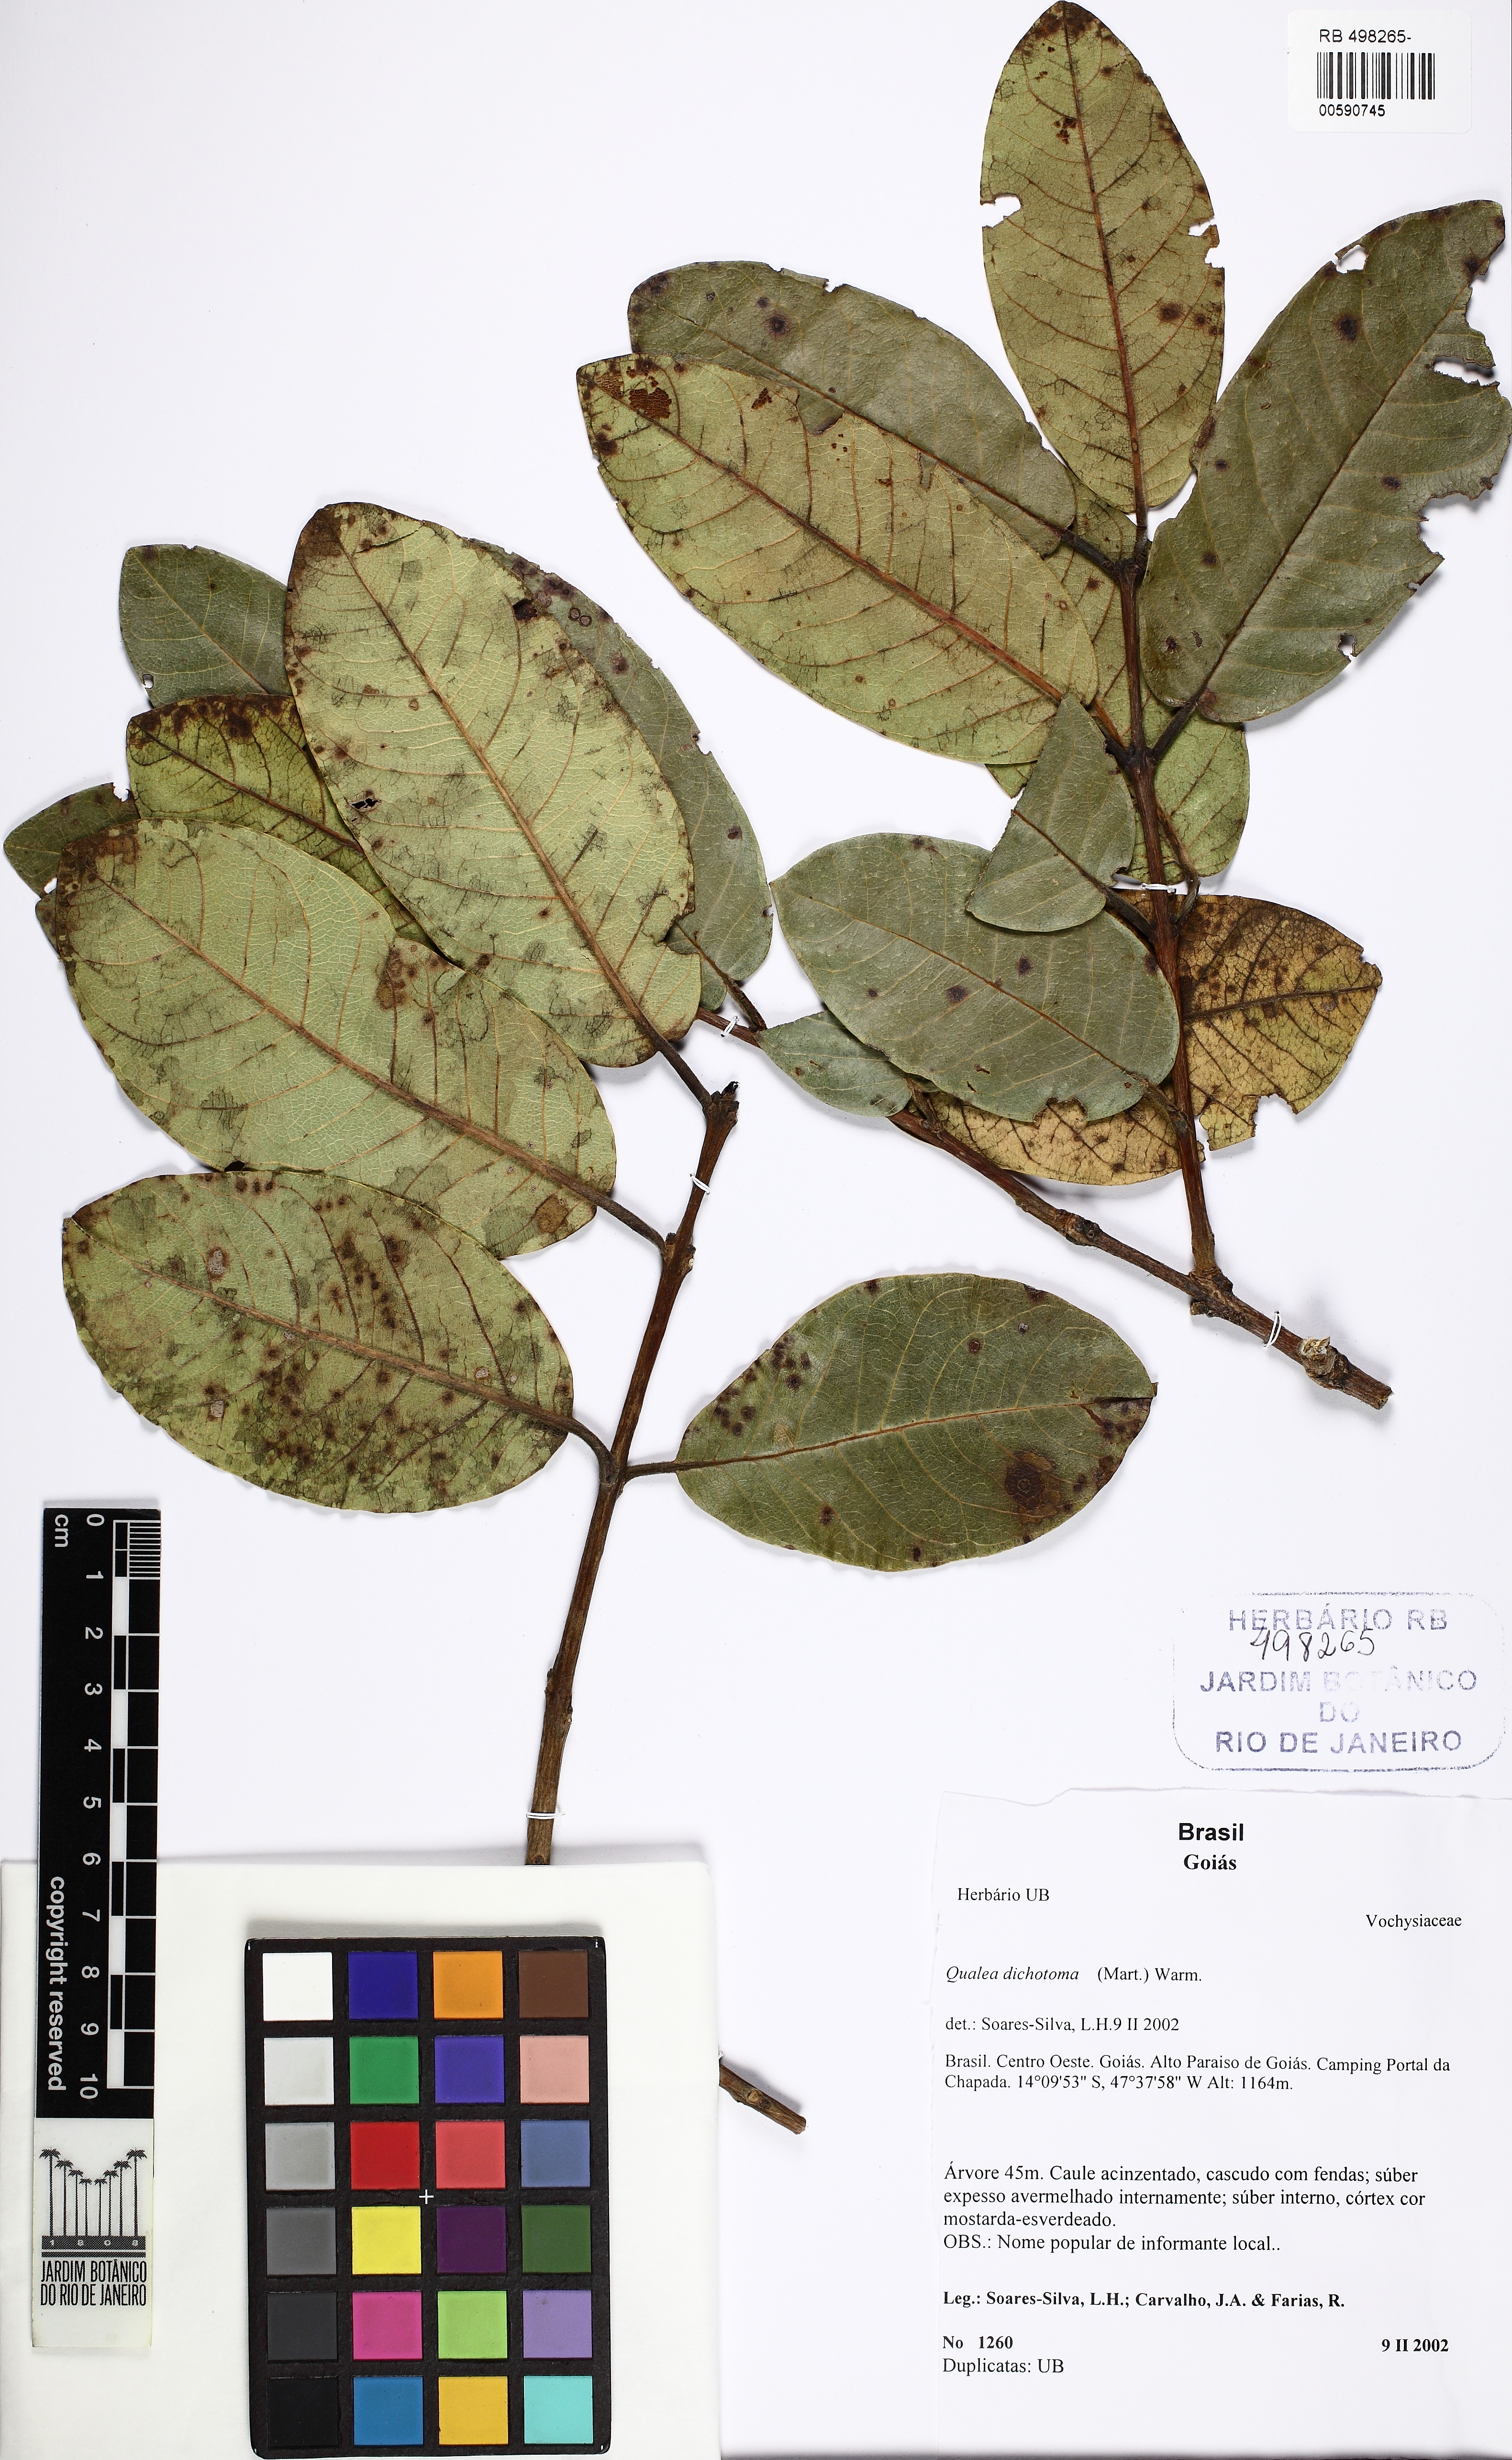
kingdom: Plantae
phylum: Tracheophyta
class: Magnoliopsida
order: Myrtales
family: Vochysiaceae
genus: Qualea
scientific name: Qualea cordata
